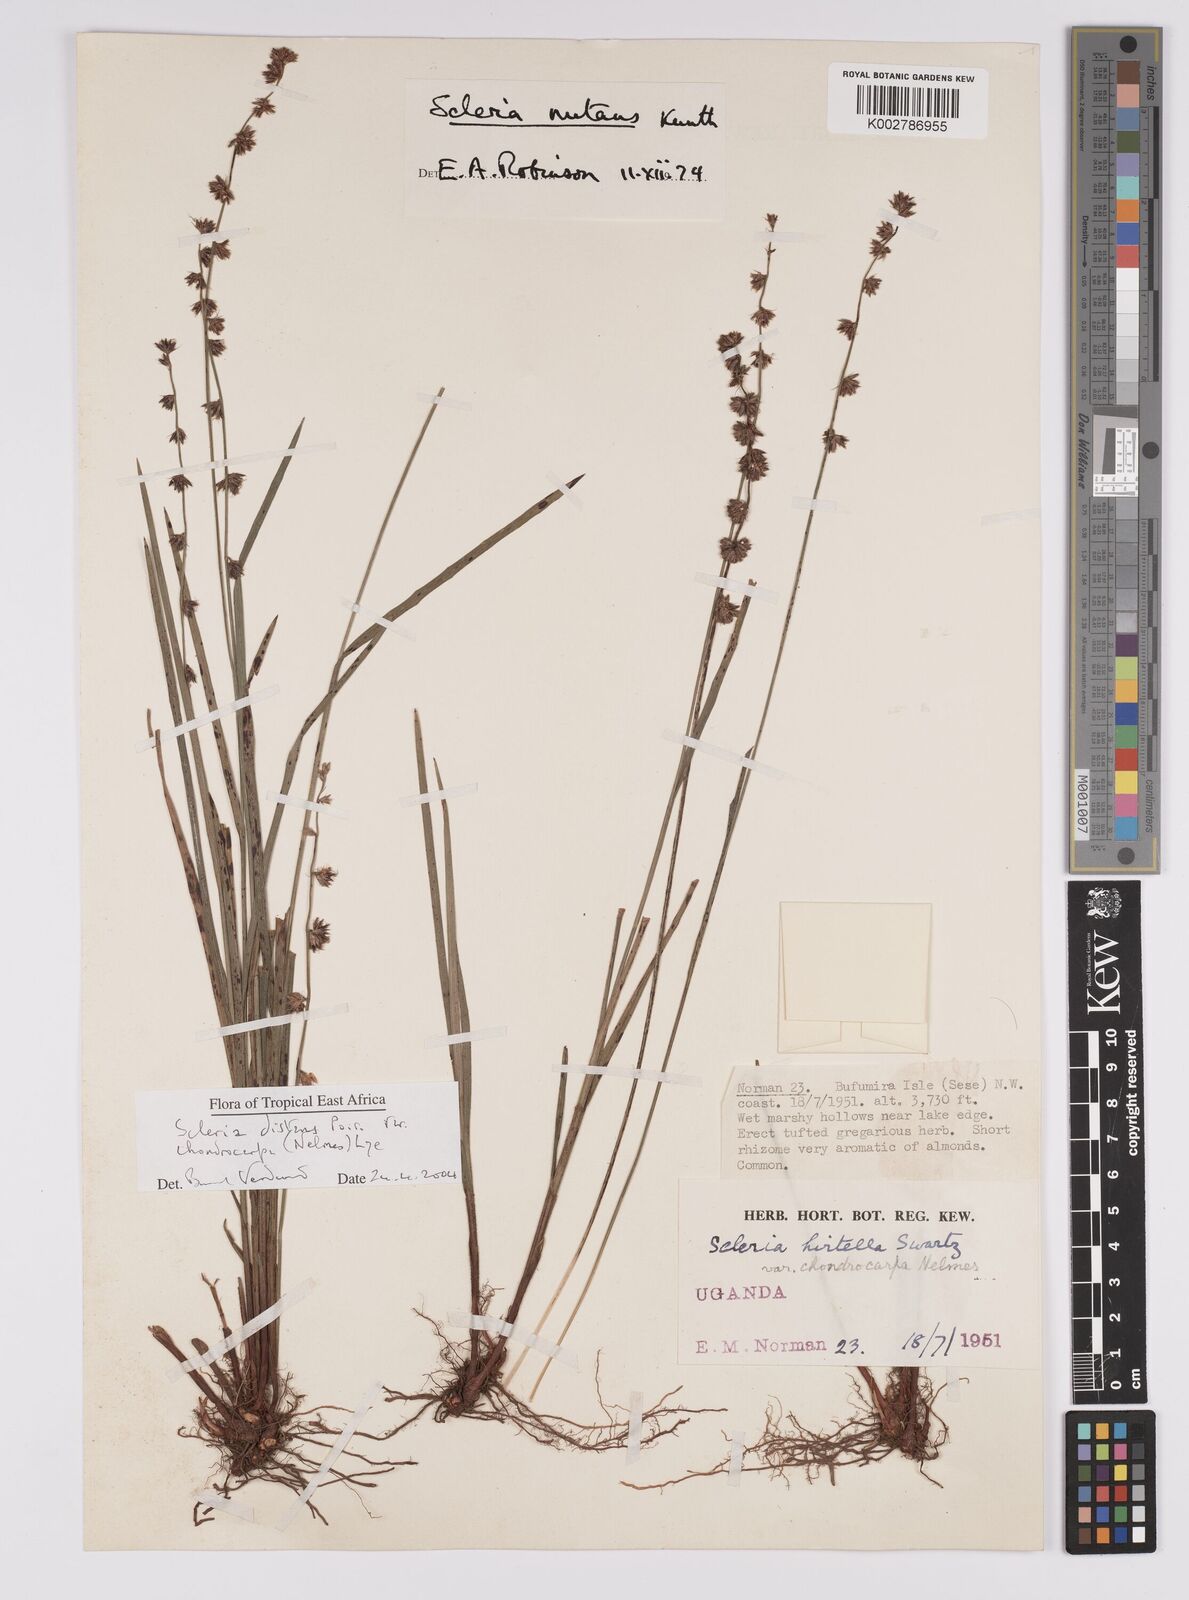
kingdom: Plantae
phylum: Tracheophyta
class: Liliopsida
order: Poales
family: Cyperaceae
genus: Scleria
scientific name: Scleria distans
